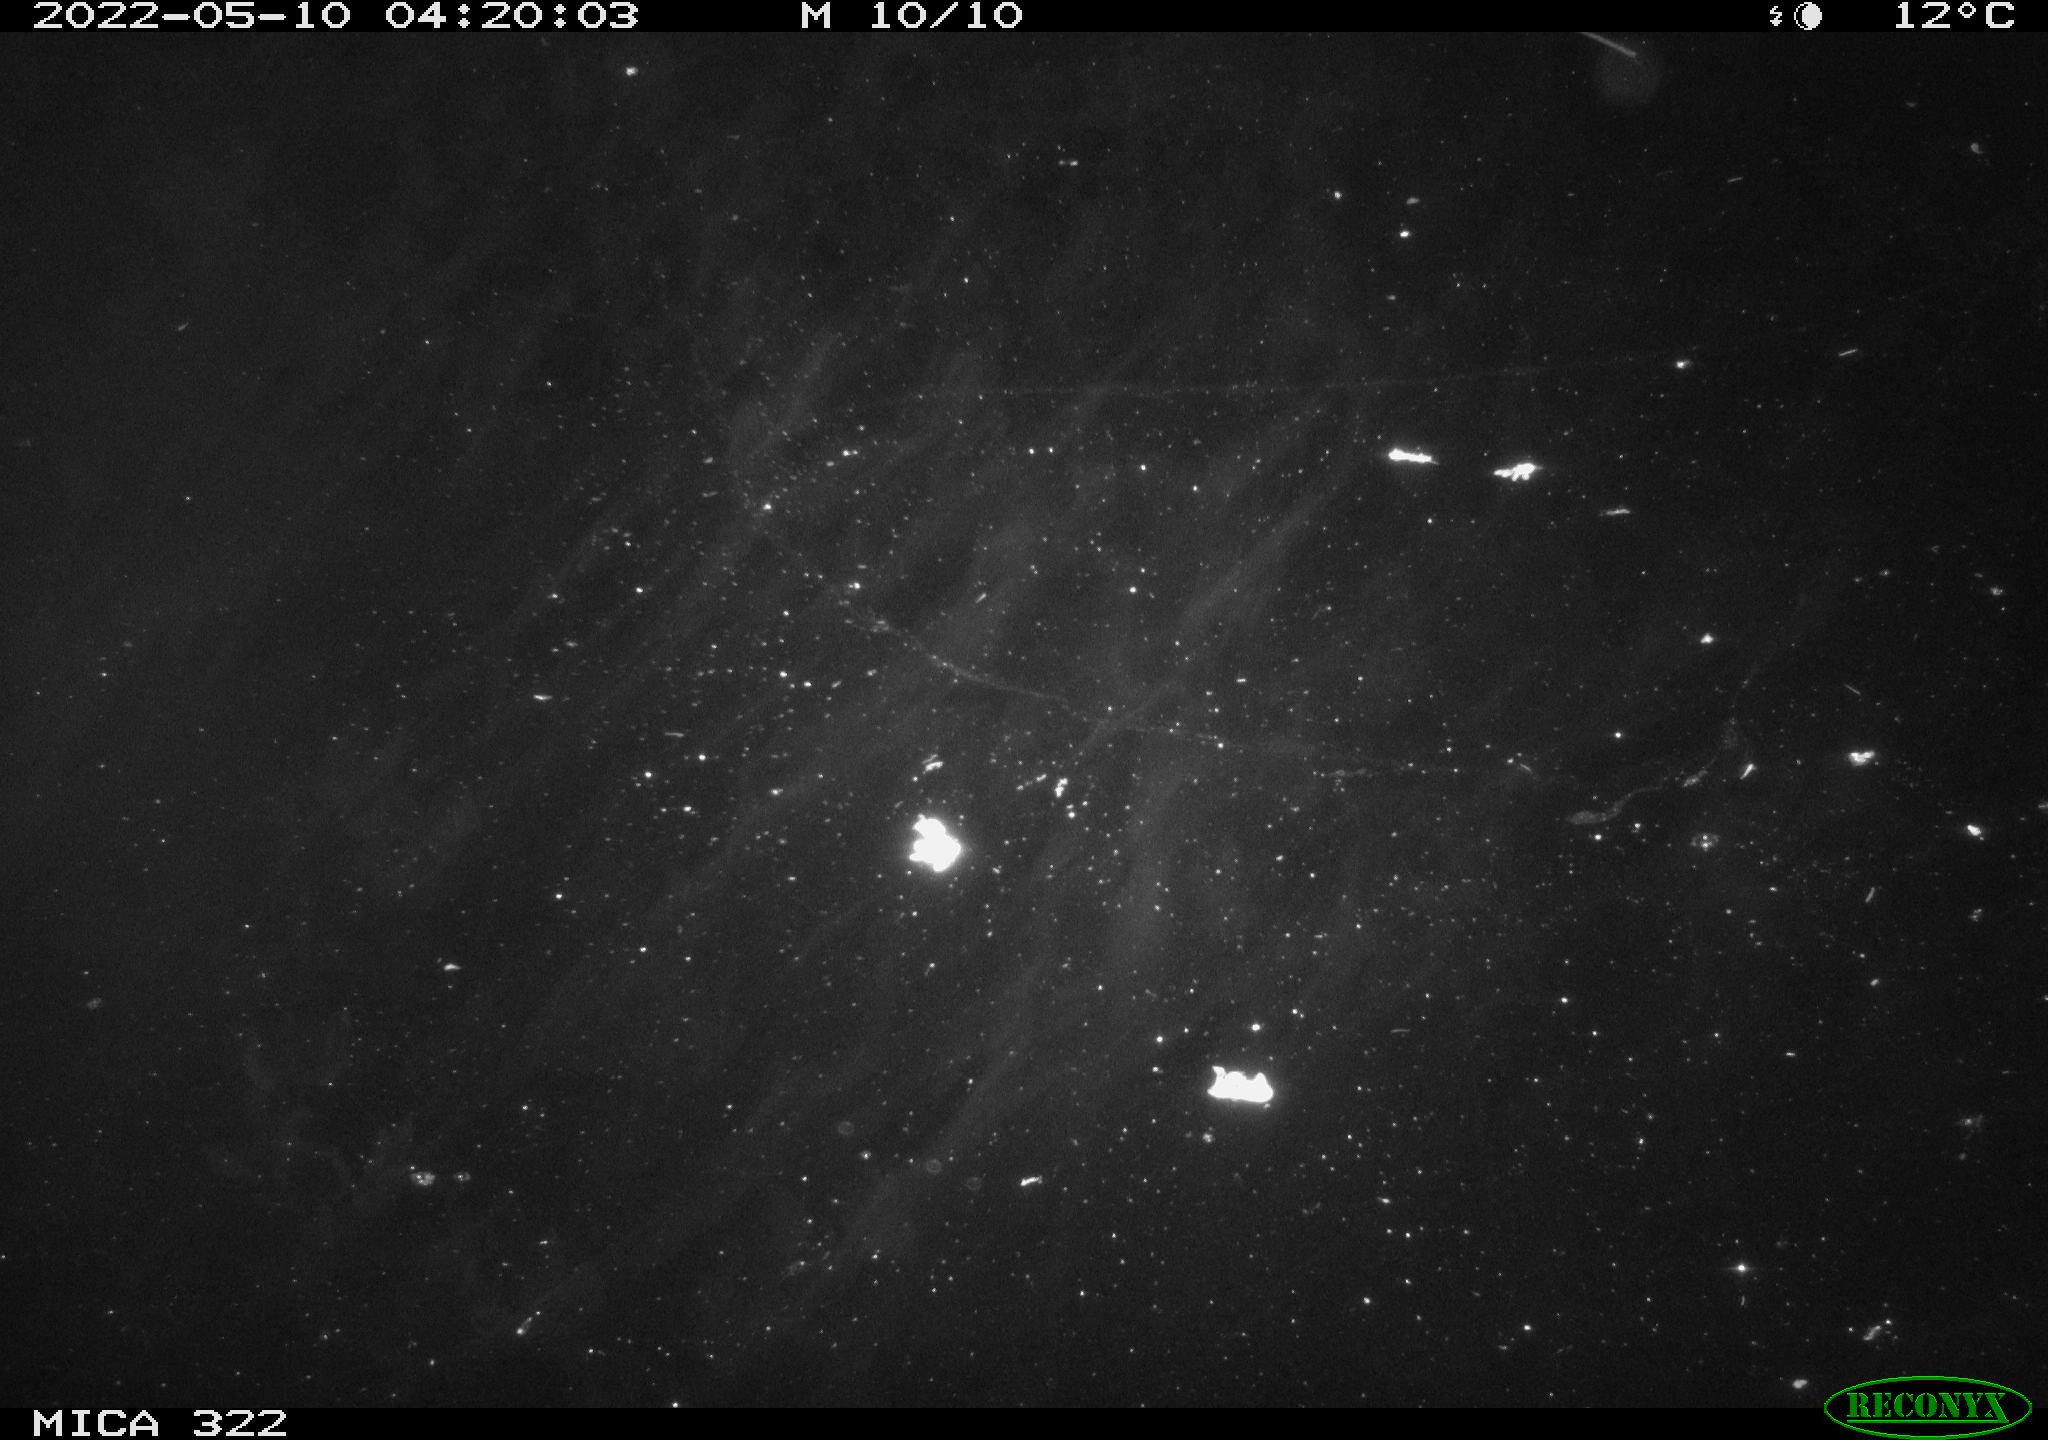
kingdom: Animalia
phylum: Chordata
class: Aves
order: Anseriformes
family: Anatidae
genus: Anas
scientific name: Anas platyrhynchos
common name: Mallard
